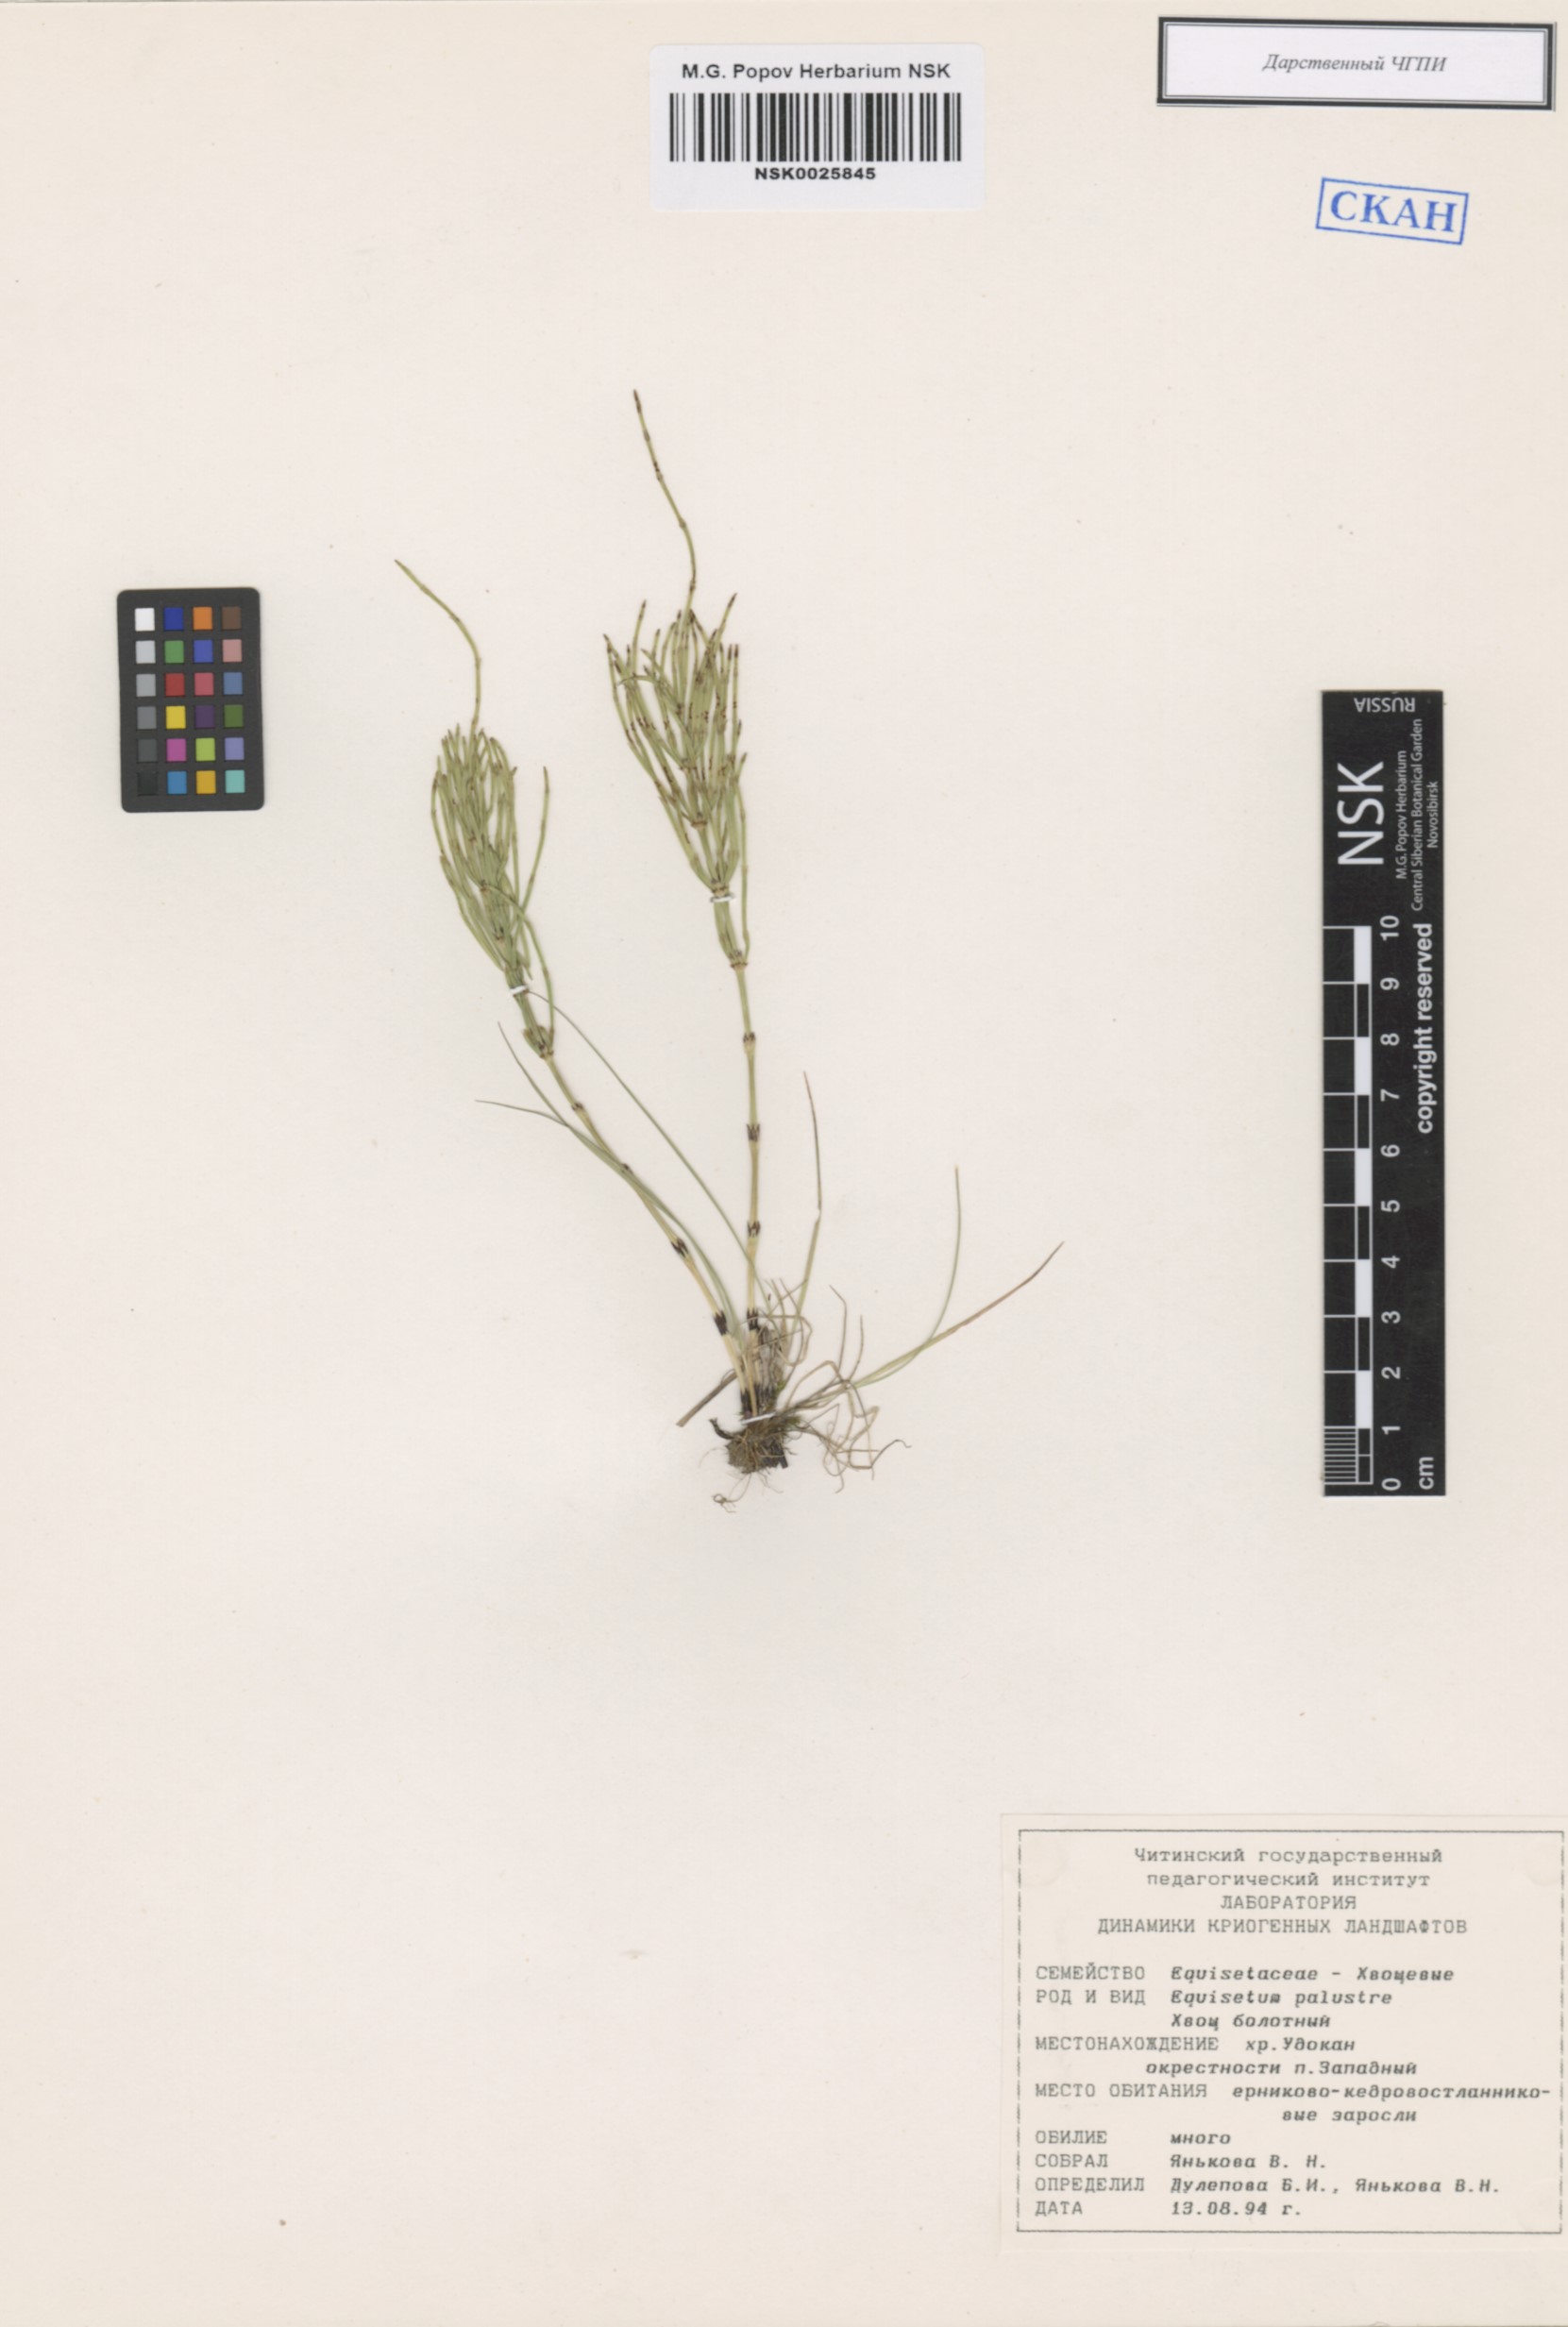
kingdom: Plantae
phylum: Tracheophyta
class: Polypodiopsida
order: Equisetales
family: Equisetaceae
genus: Equisetum
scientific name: Equisetum palustre
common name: Marsh horsetail
